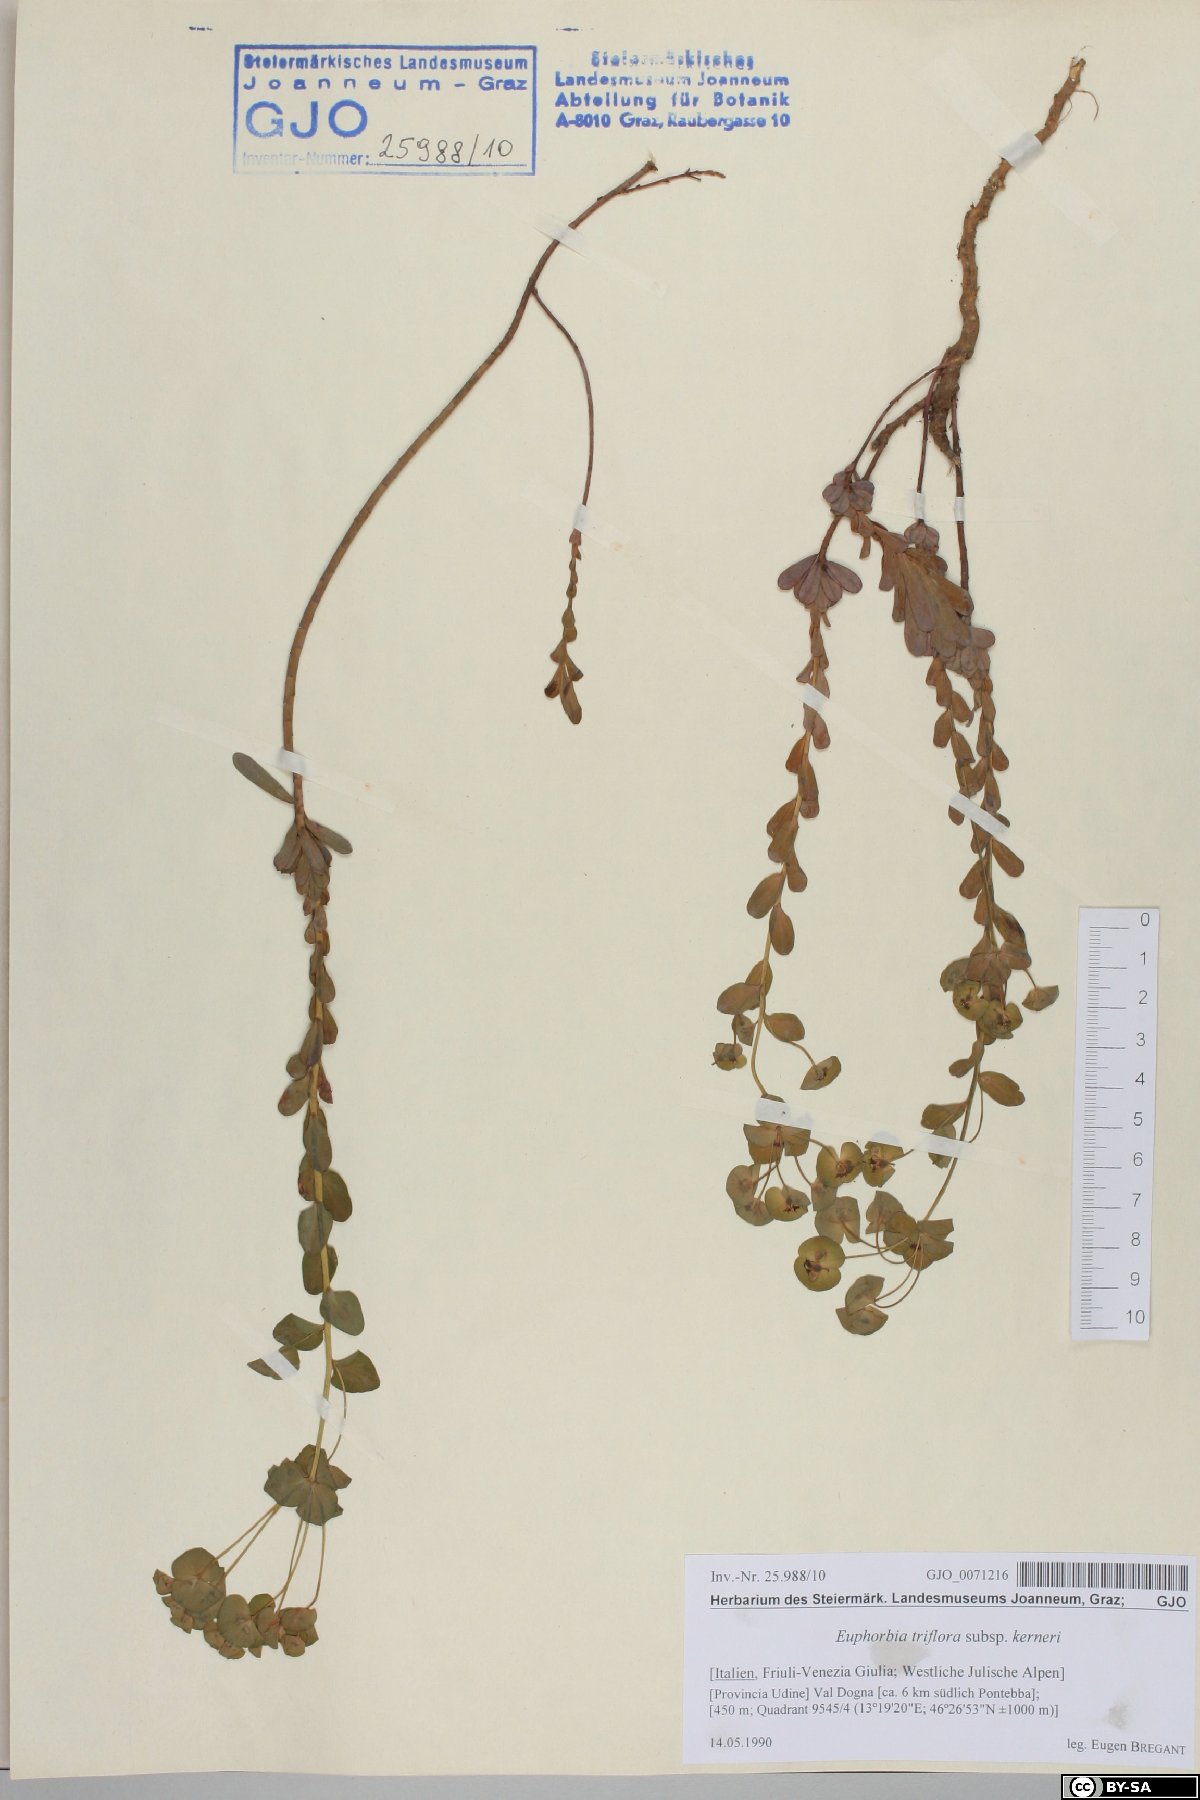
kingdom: Plantae
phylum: Tracheophyta
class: Magnoliopsida
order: Malpighiales
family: Euphorbiaceae
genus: Euphorbia
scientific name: Euphorbia kerneri
